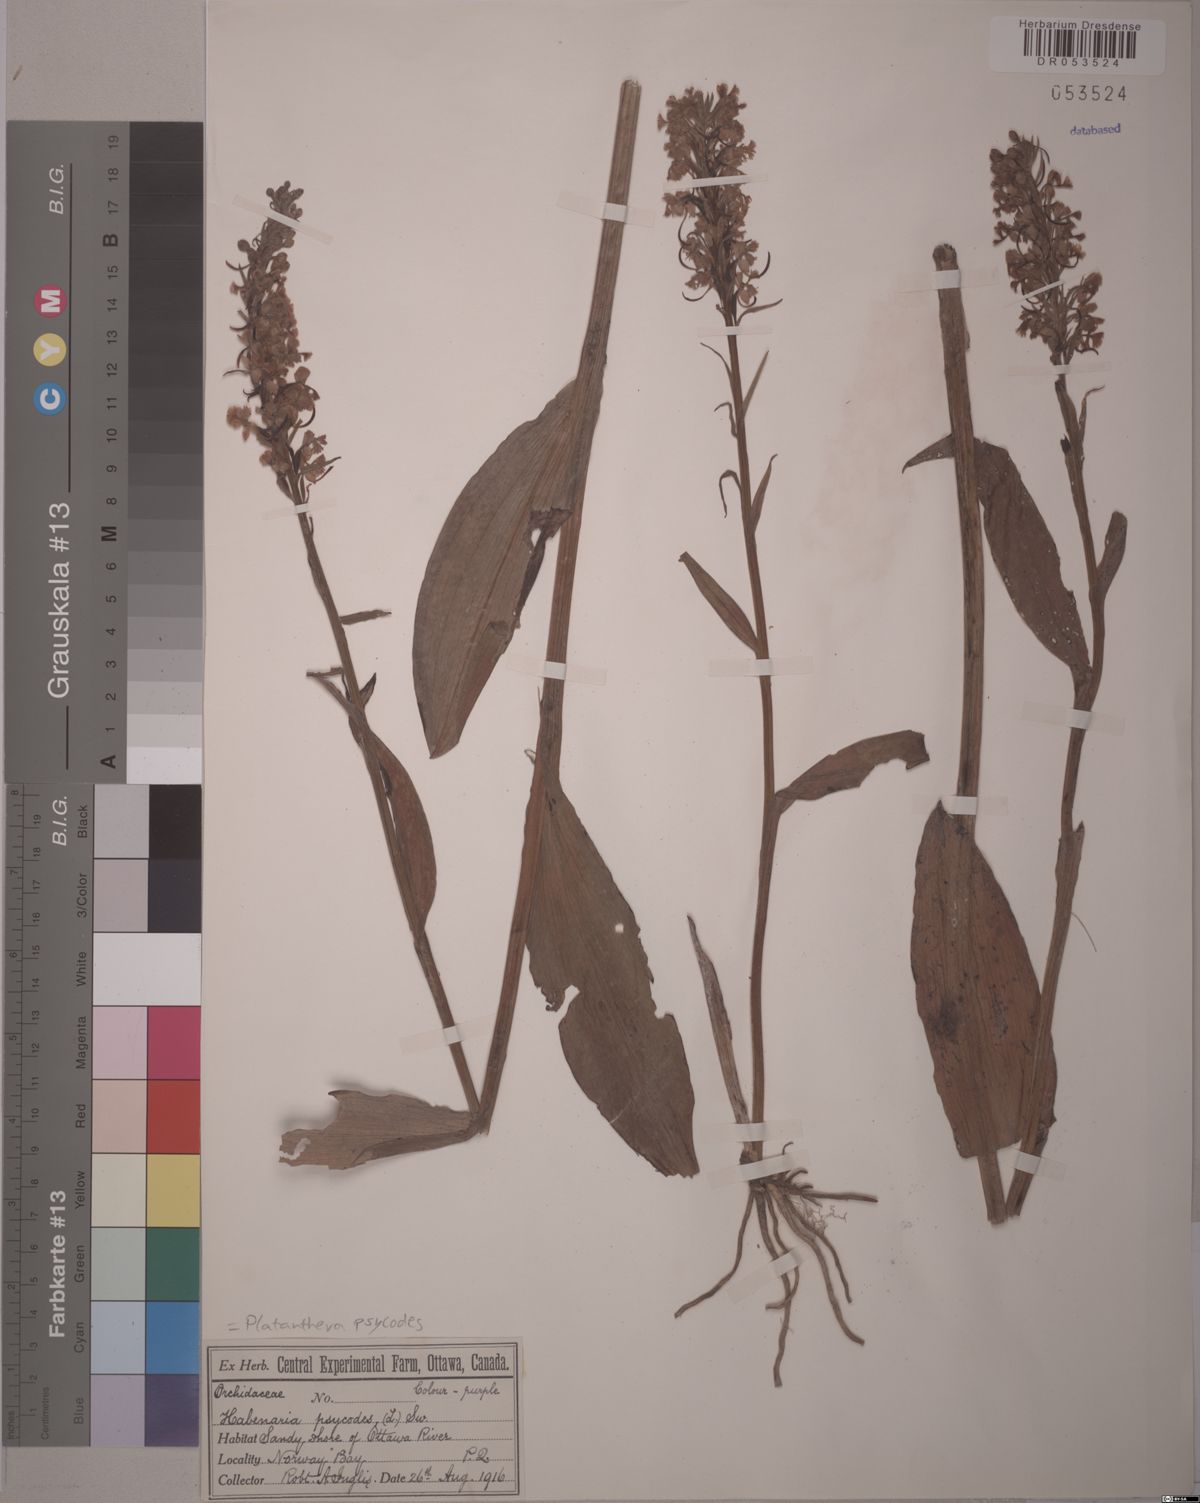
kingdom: Plantae
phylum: Tracheophyta
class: Liliopsida
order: Asparagales
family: Orchidaceae
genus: Platanthera
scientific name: Platanthera psycodes
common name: Lesser purple fringed orchid
